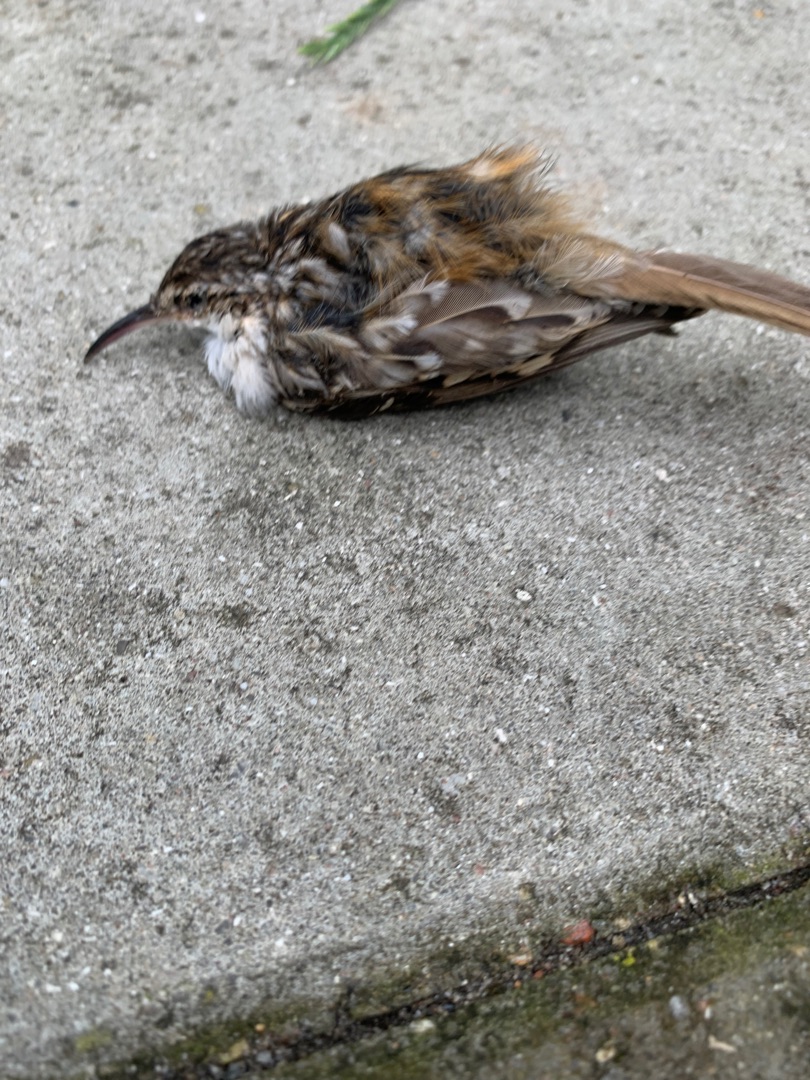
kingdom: Animalia
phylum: Chordata
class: Aves
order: Passeriformes
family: Certhiidae
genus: Certhia
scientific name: Certhia brachydactyla
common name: Korttået træløber
